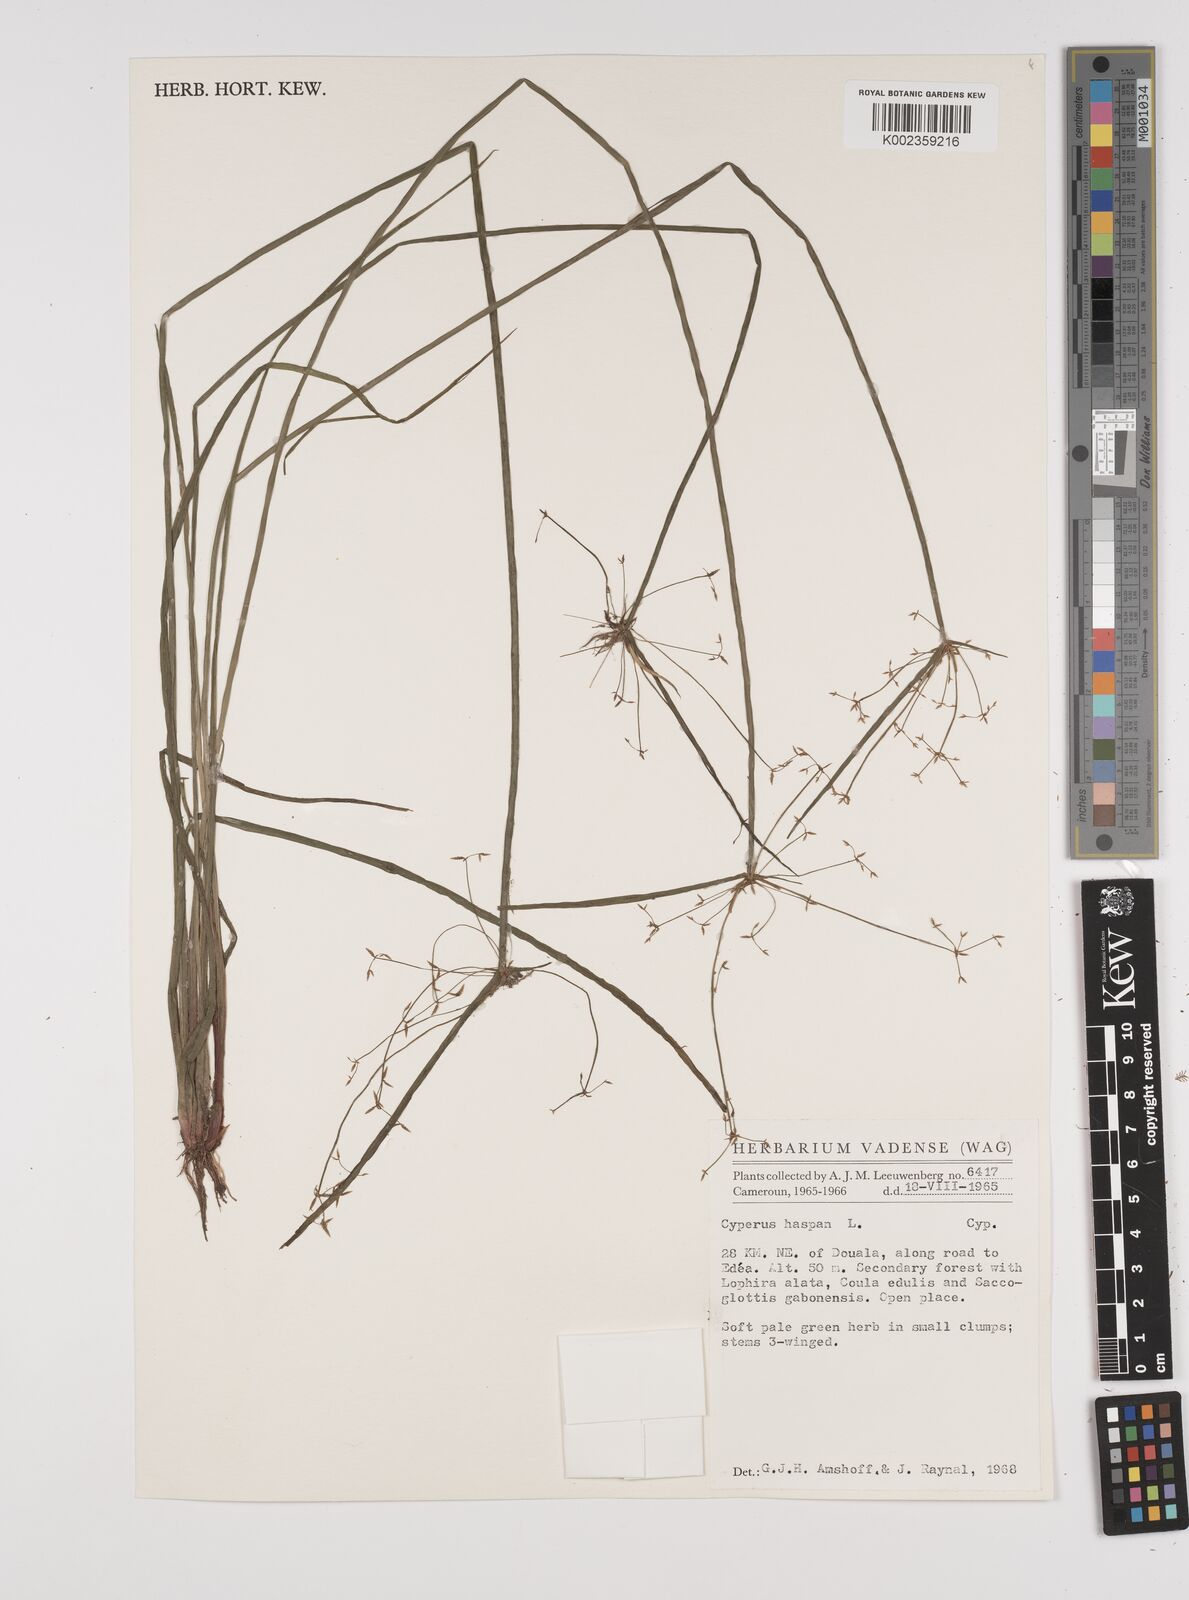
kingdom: Plantae
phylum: Tracheophyta
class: Liliopsida
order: Poales
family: Cyperaceae
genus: Cyperus
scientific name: Cyperus haspan
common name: Haspan flatsedge
